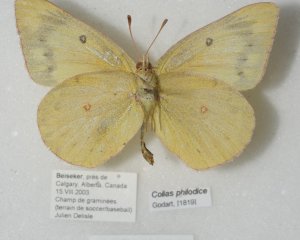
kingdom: Animalia
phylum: Arthropoda
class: Insecta
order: Lepidoptera
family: Pieridae
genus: Colias
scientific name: Colias philodice
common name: Clouded Sulphur
